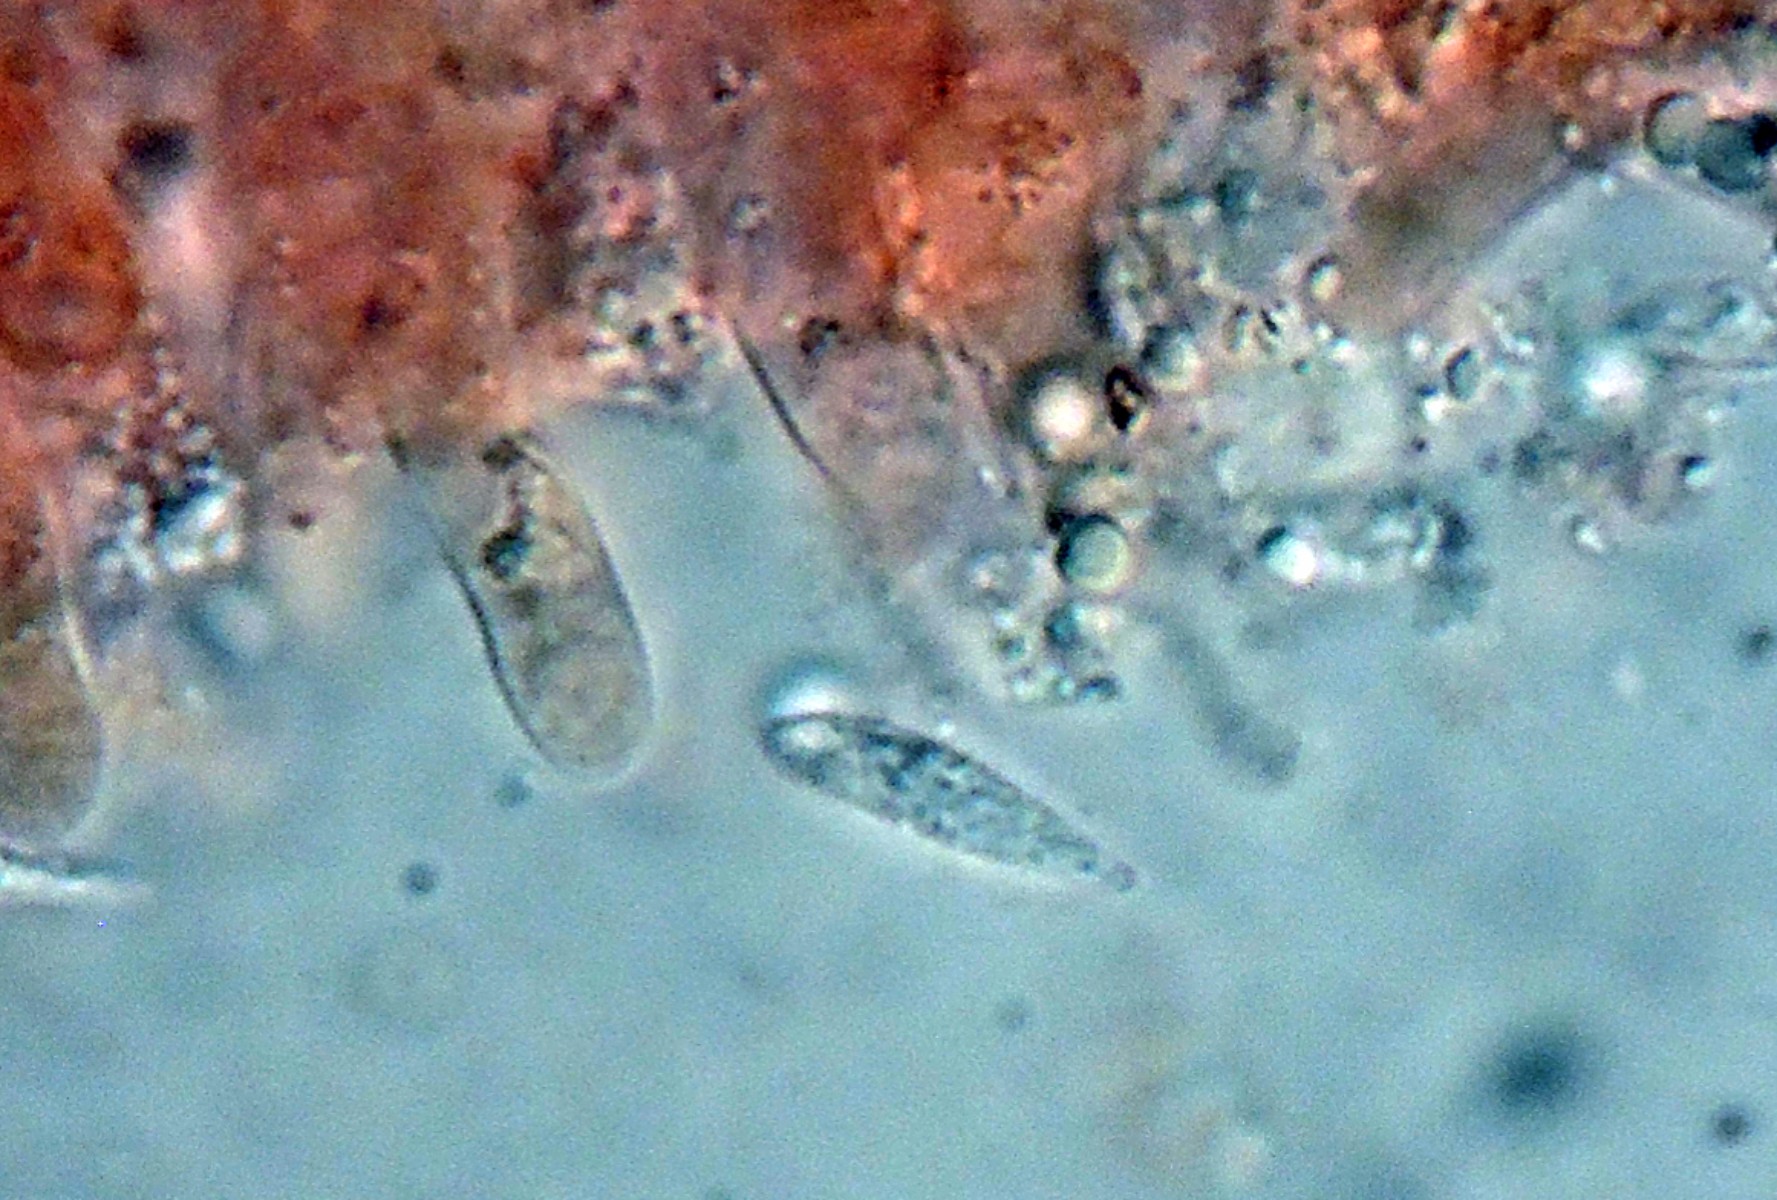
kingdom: Fungi
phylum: Basidiomycota
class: Agaricomycetes
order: Agaricales
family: Mycenaceae
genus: Hemimycena
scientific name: Hemimycena persimilis
